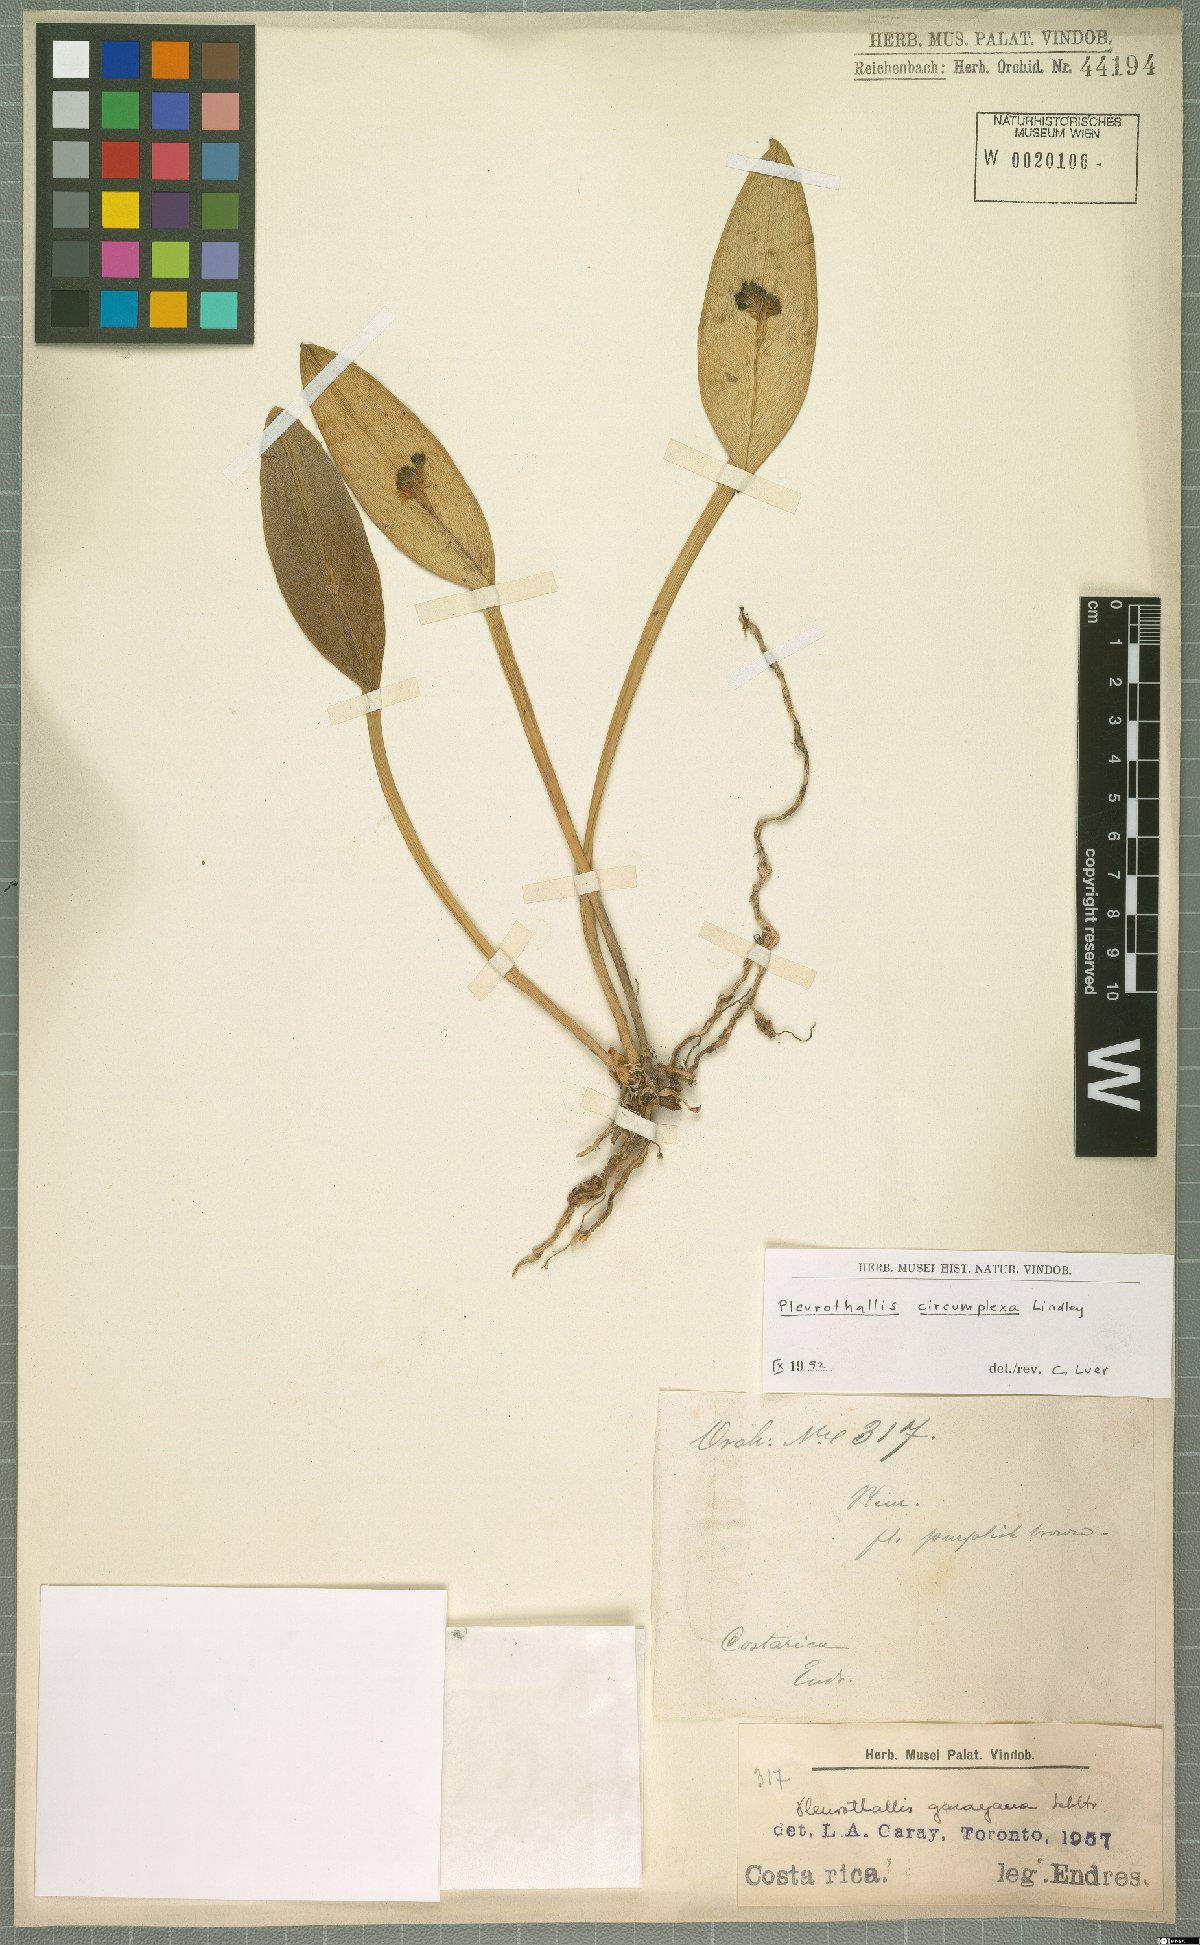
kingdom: Plantae
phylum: Tracheophyta
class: Liliopsida
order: Asparagales
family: Orchidaceae
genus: Acianthera
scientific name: Acianthera circumplexa
